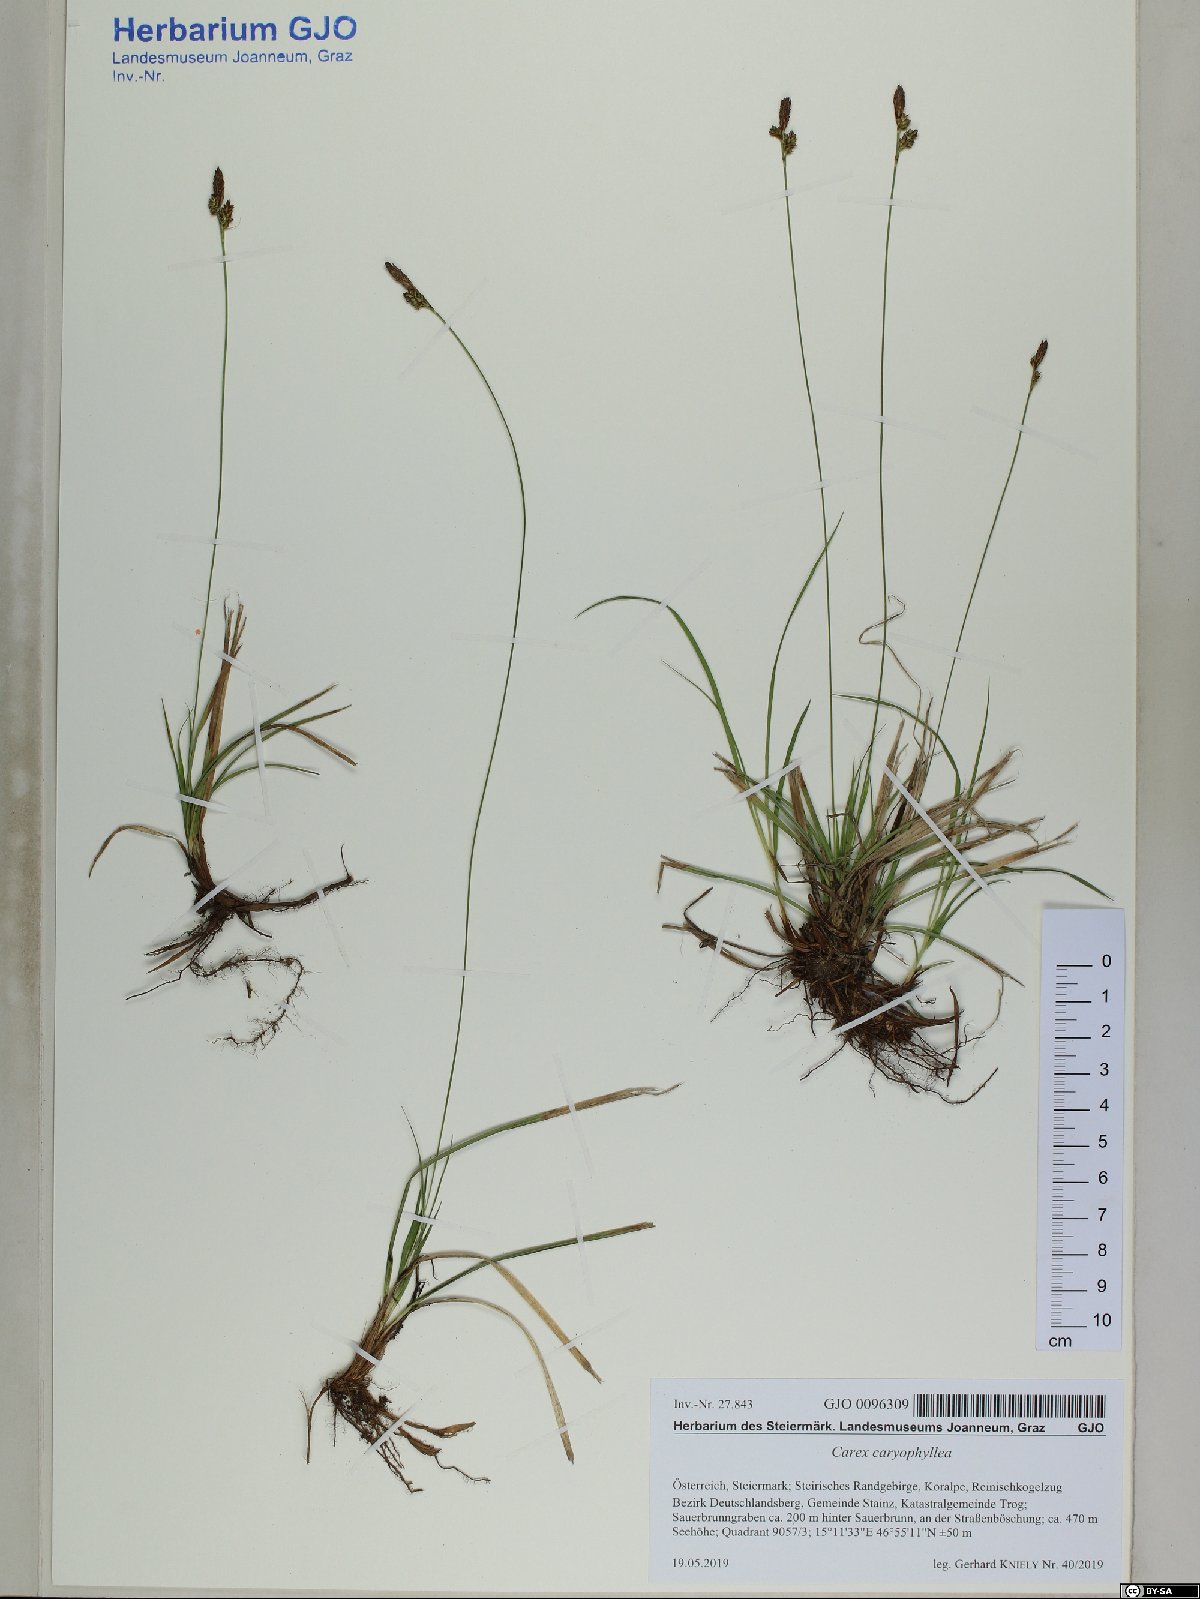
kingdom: Plantae
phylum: Tracheophyta
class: Liliopsida
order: Poales
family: Cyperaceae
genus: Carex
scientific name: Carex caryophyllea
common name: Spring sedge
